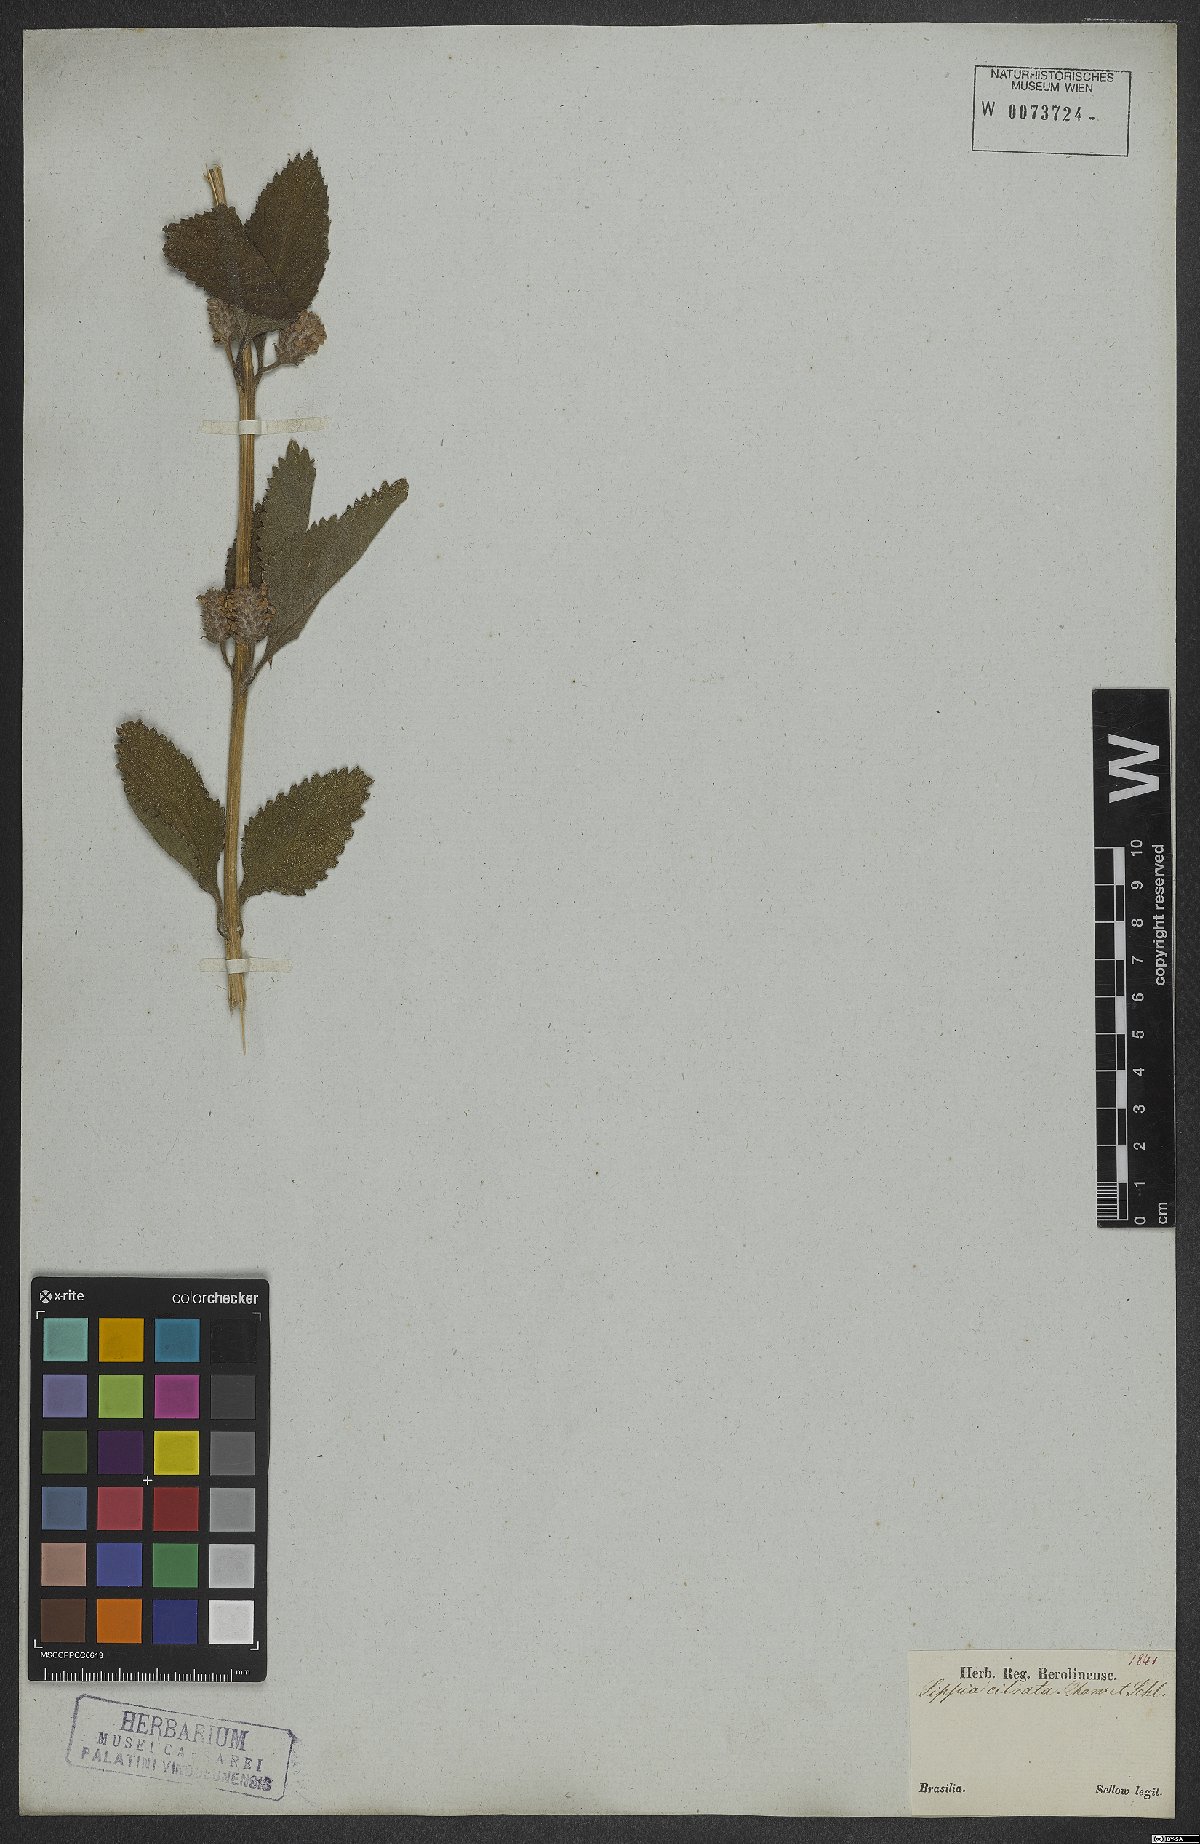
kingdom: Plantae
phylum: Tracheophyta
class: Magnoliopsida
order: Lamiales
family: Verbenaceae
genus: Lippia
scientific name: Lippia alba
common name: Bushy matgrass
